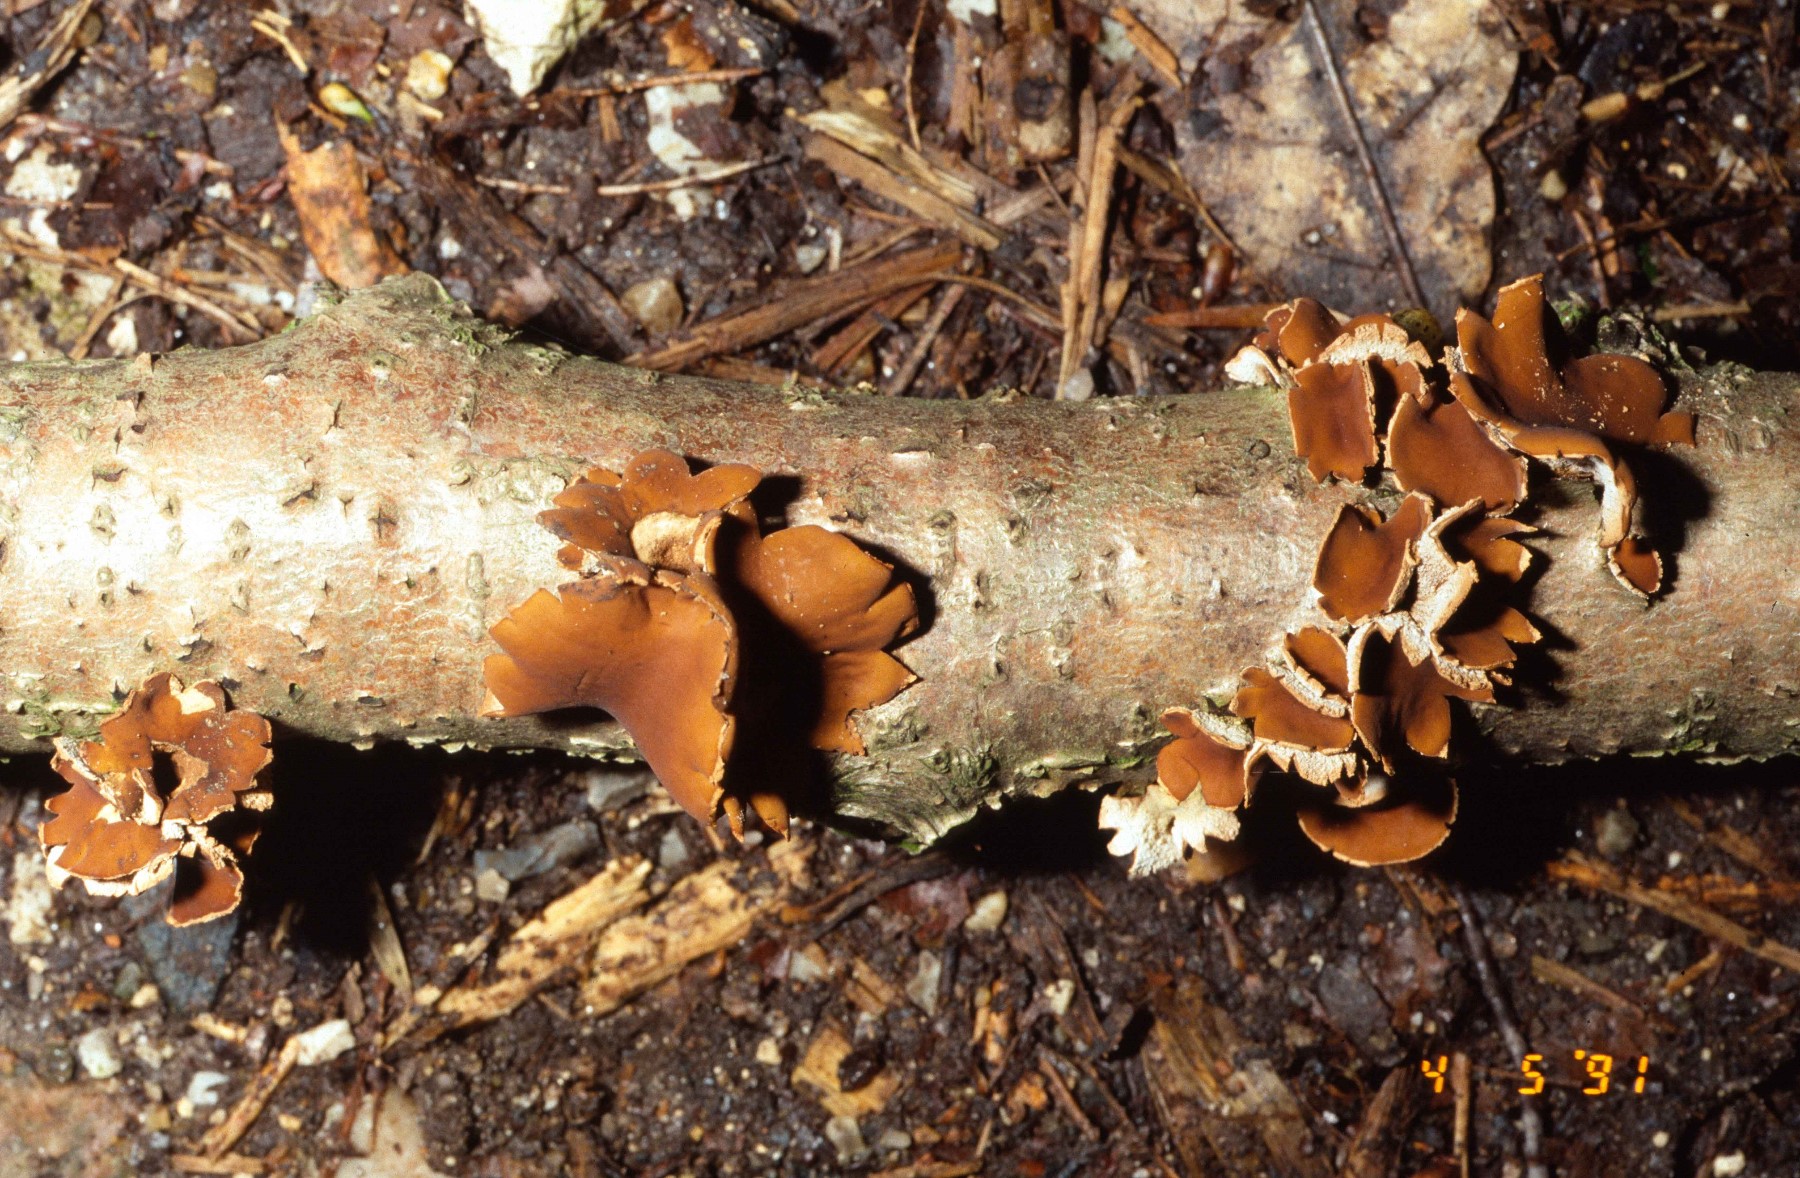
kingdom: Fungi
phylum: Ascomycota
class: Leotiomycetes
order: Helotiales
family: Cenangiaceae
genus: Encoelia
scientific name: Encoelia furfuracea
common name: hassel-læderskive
